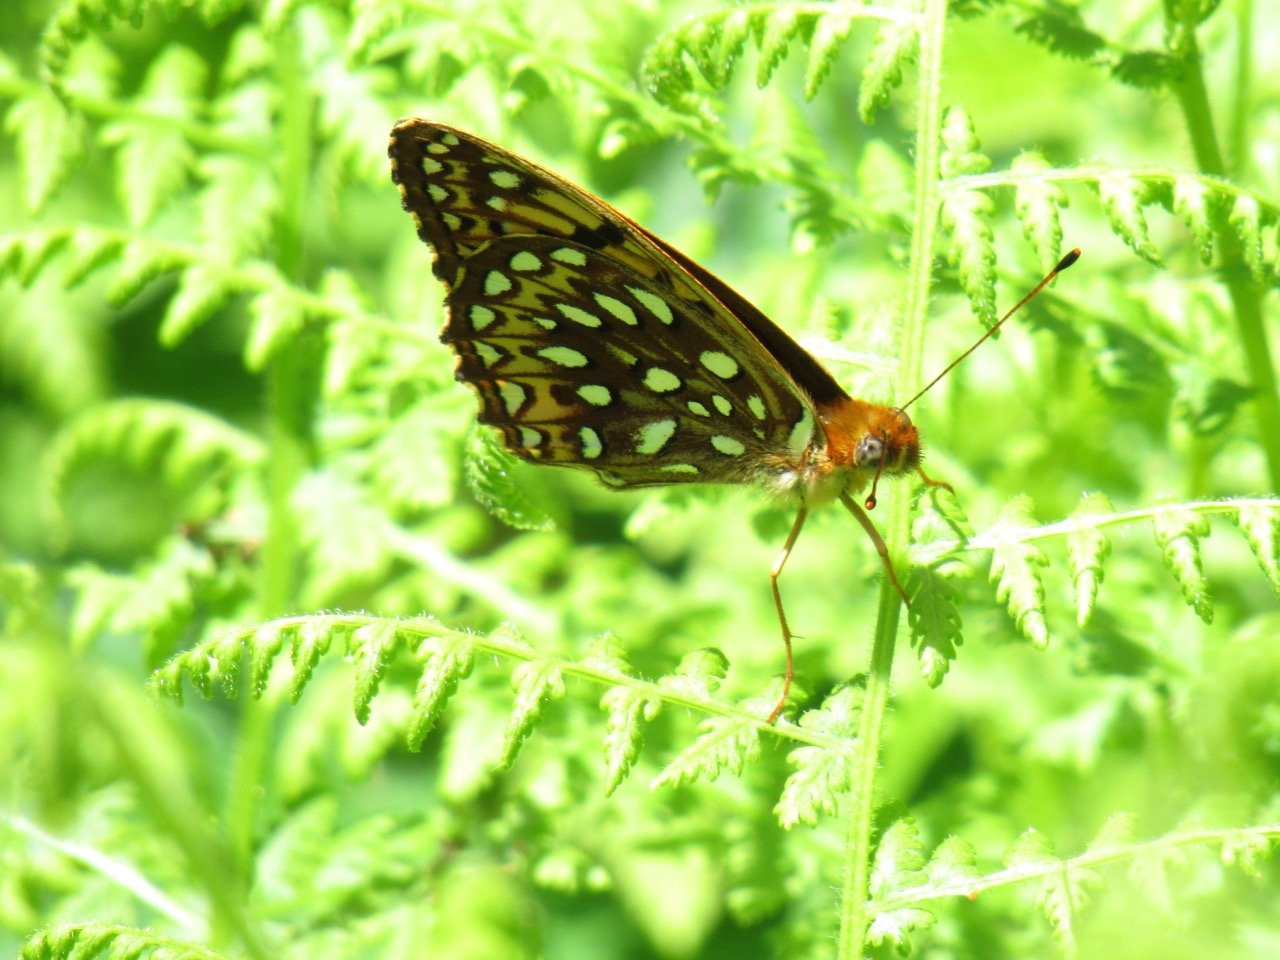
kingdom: Animalia
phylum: Arthropoda
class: Insecta
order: Lepidoptera
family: Nymphalidae
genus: Speyeria
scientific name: Speyeria atlantis
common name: Atlantis Fritillary
